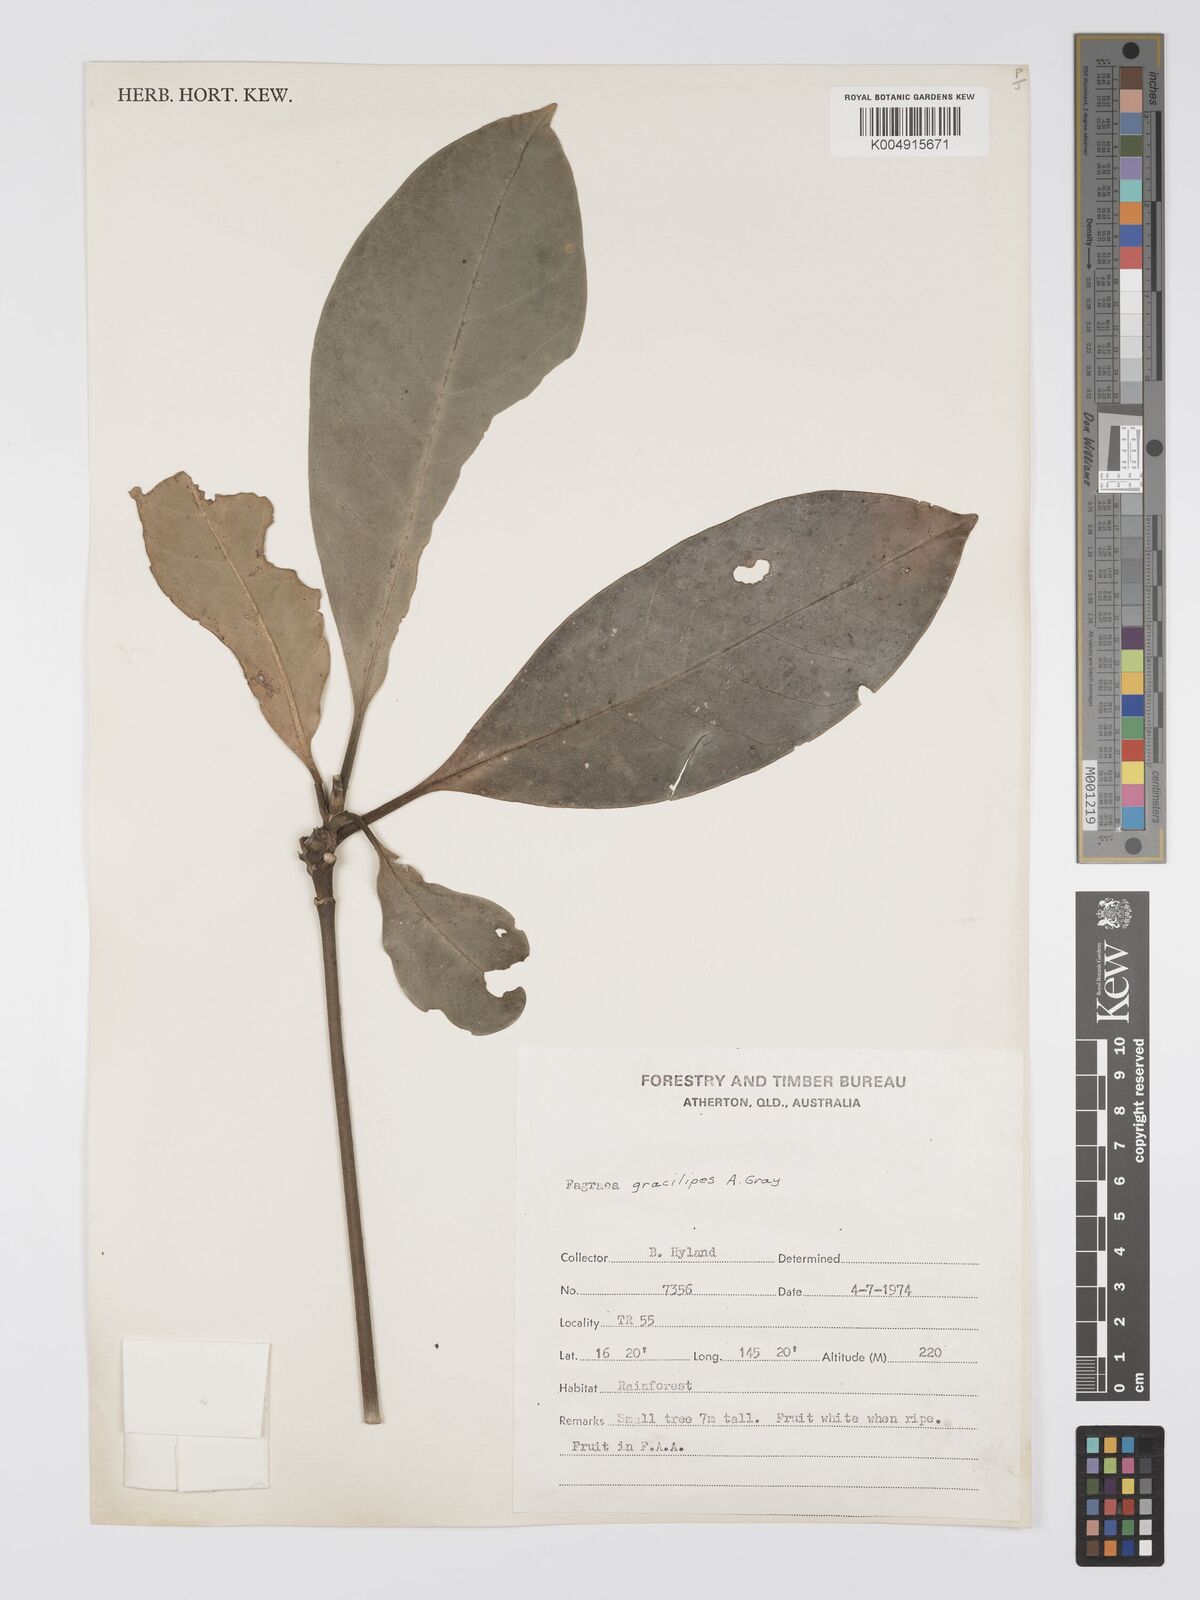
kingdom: Plantae
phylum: Tracheophyta
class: Magnoliopsida
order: Gentianales
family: Gentianaceae
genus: Fagraea
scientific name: Fagraea gracilipes
